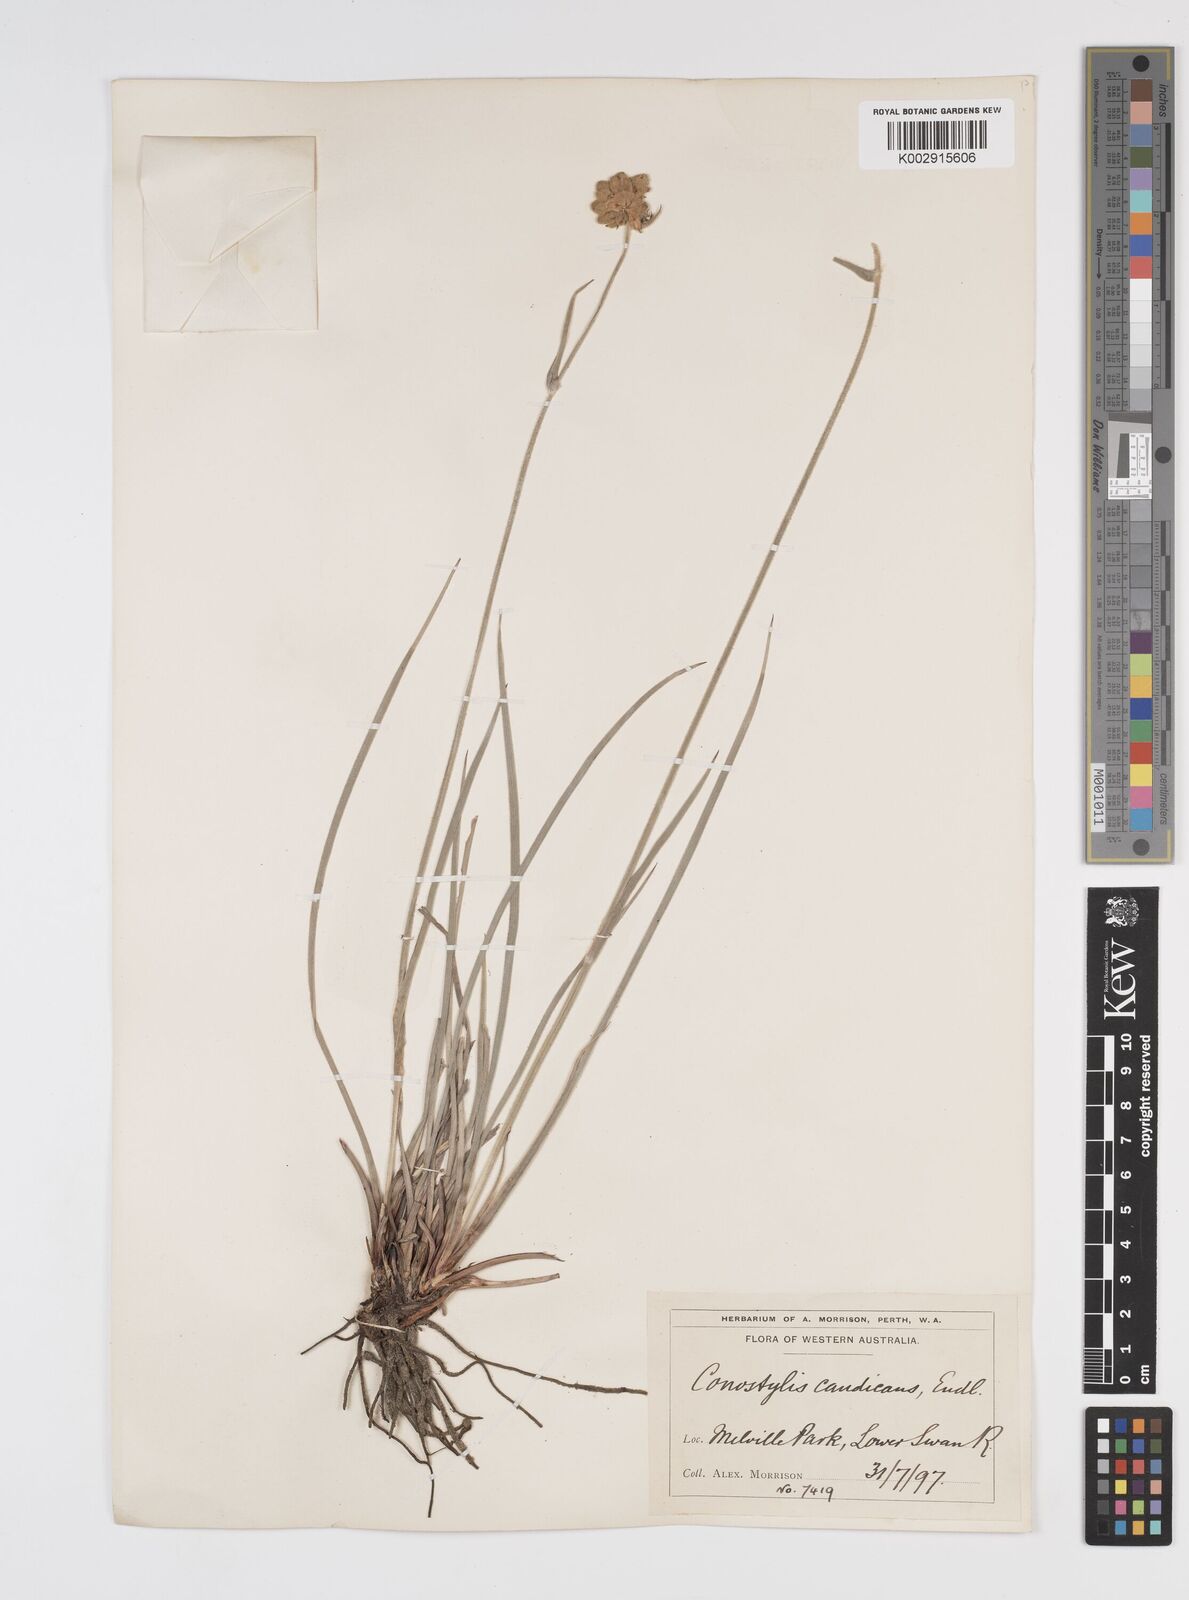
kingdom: Plantae
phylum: Tracheophyta
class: Liliopsida
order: Commelinales
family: Haemodoraceae
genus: Conostylis
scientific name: Conostylis candicans
